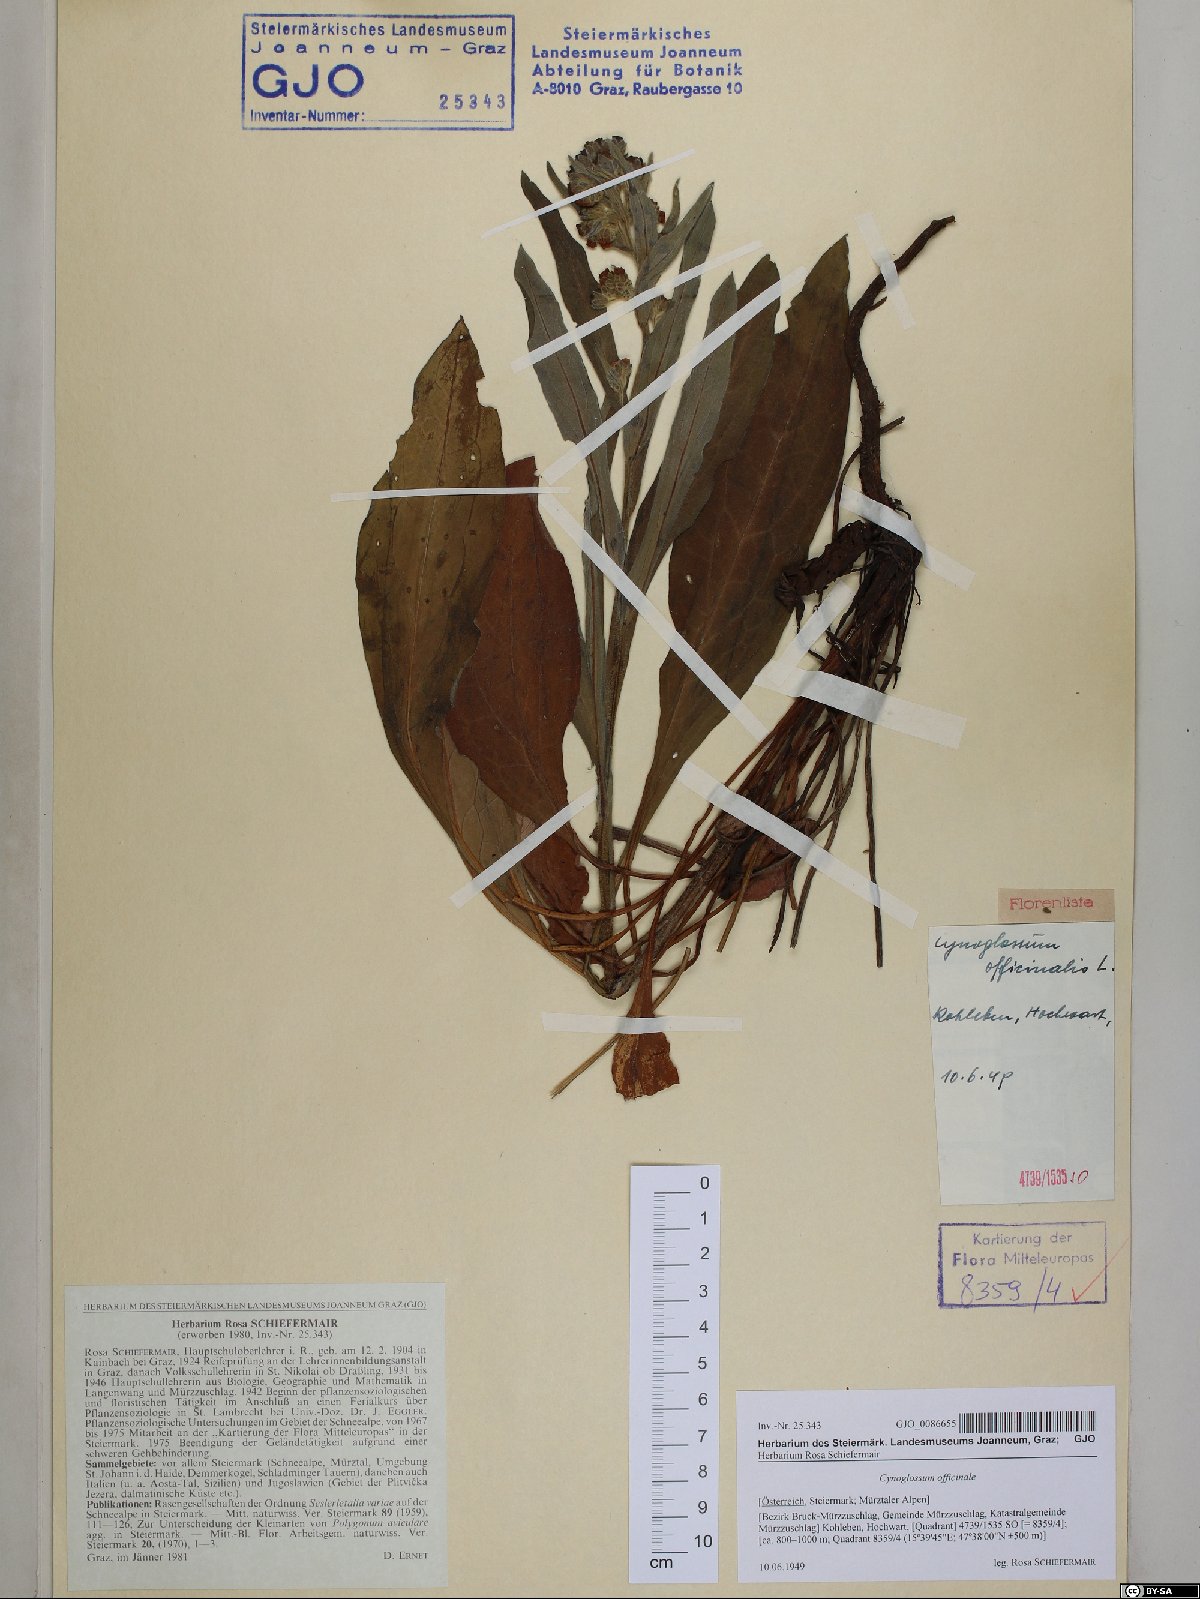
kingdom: Plantae
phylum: Tracheophyta
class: Magnoliopsida
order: Boraginales
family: Boraginaceae
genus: Cynoglossum
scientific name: Cynoglossum officinale
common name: Hound's-tongue
